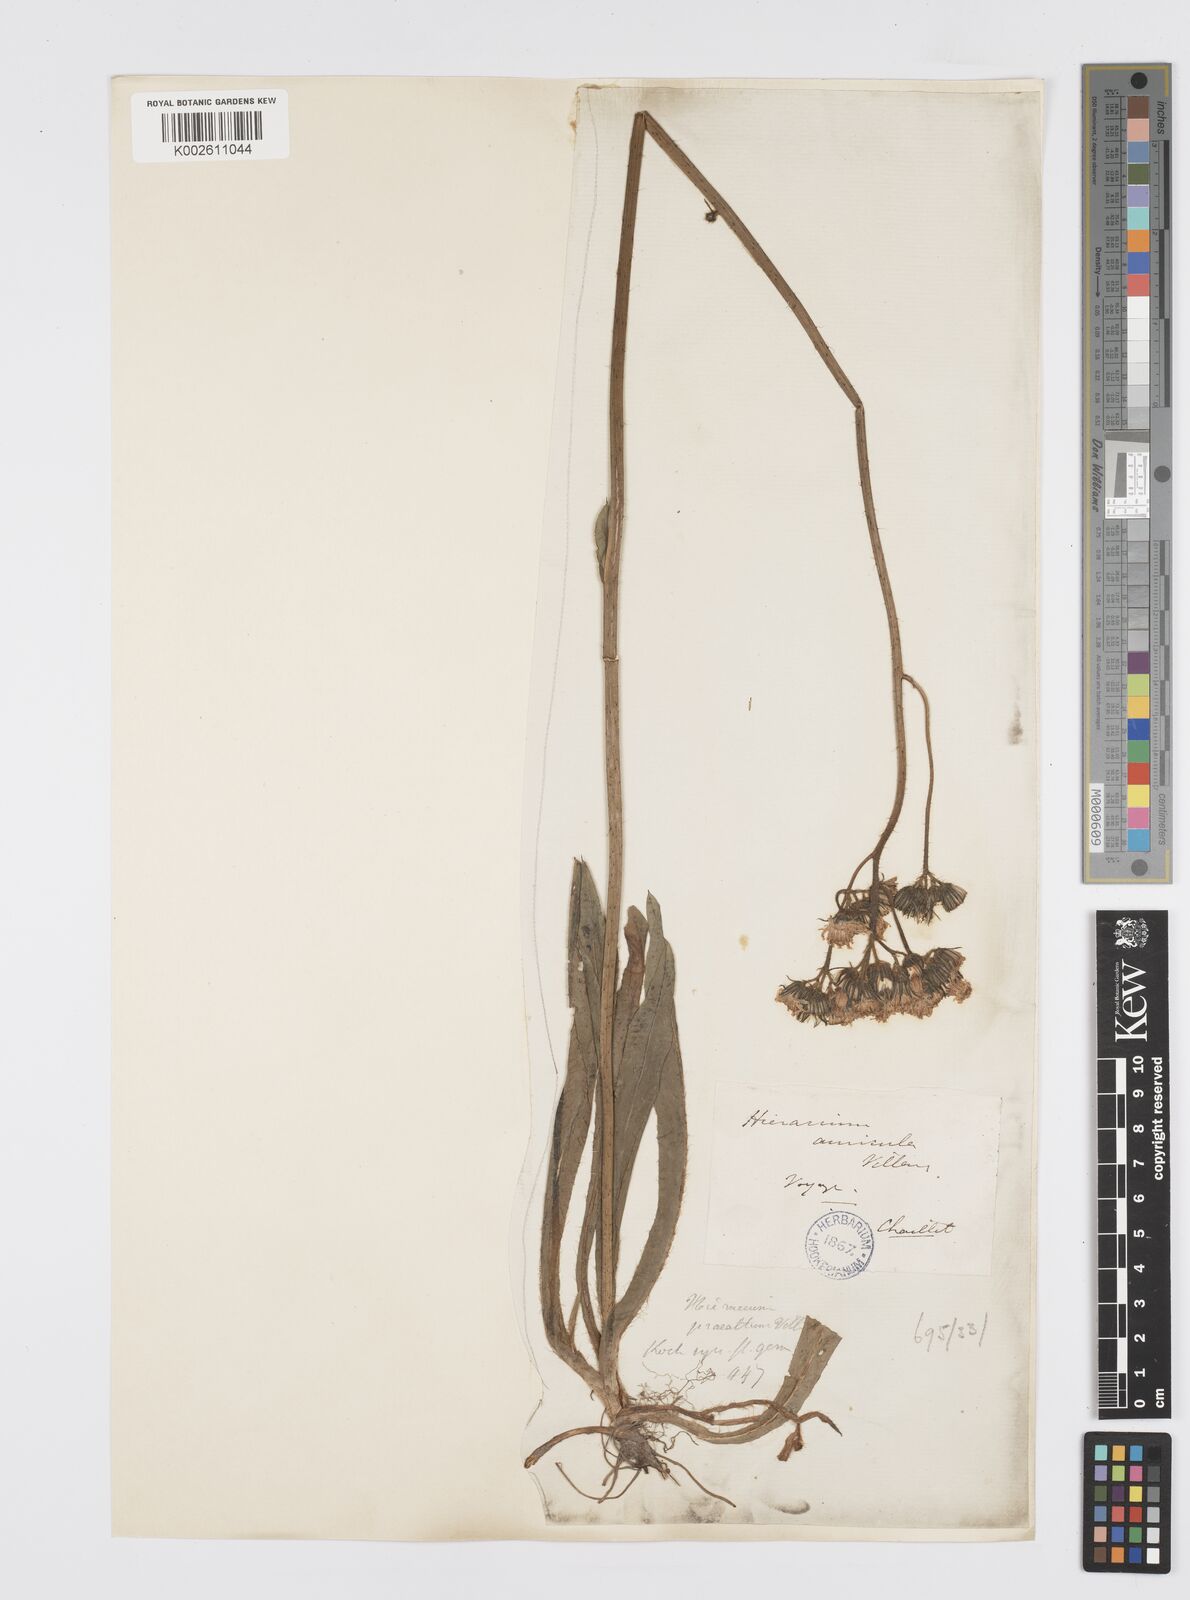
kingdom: Plantae
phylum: Tracheophyta
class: Magnoliopsida
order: Asterales
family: Asteraceae
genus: Pilosella
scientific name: Pilosella piloselloides
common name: Glaucous king-devil
